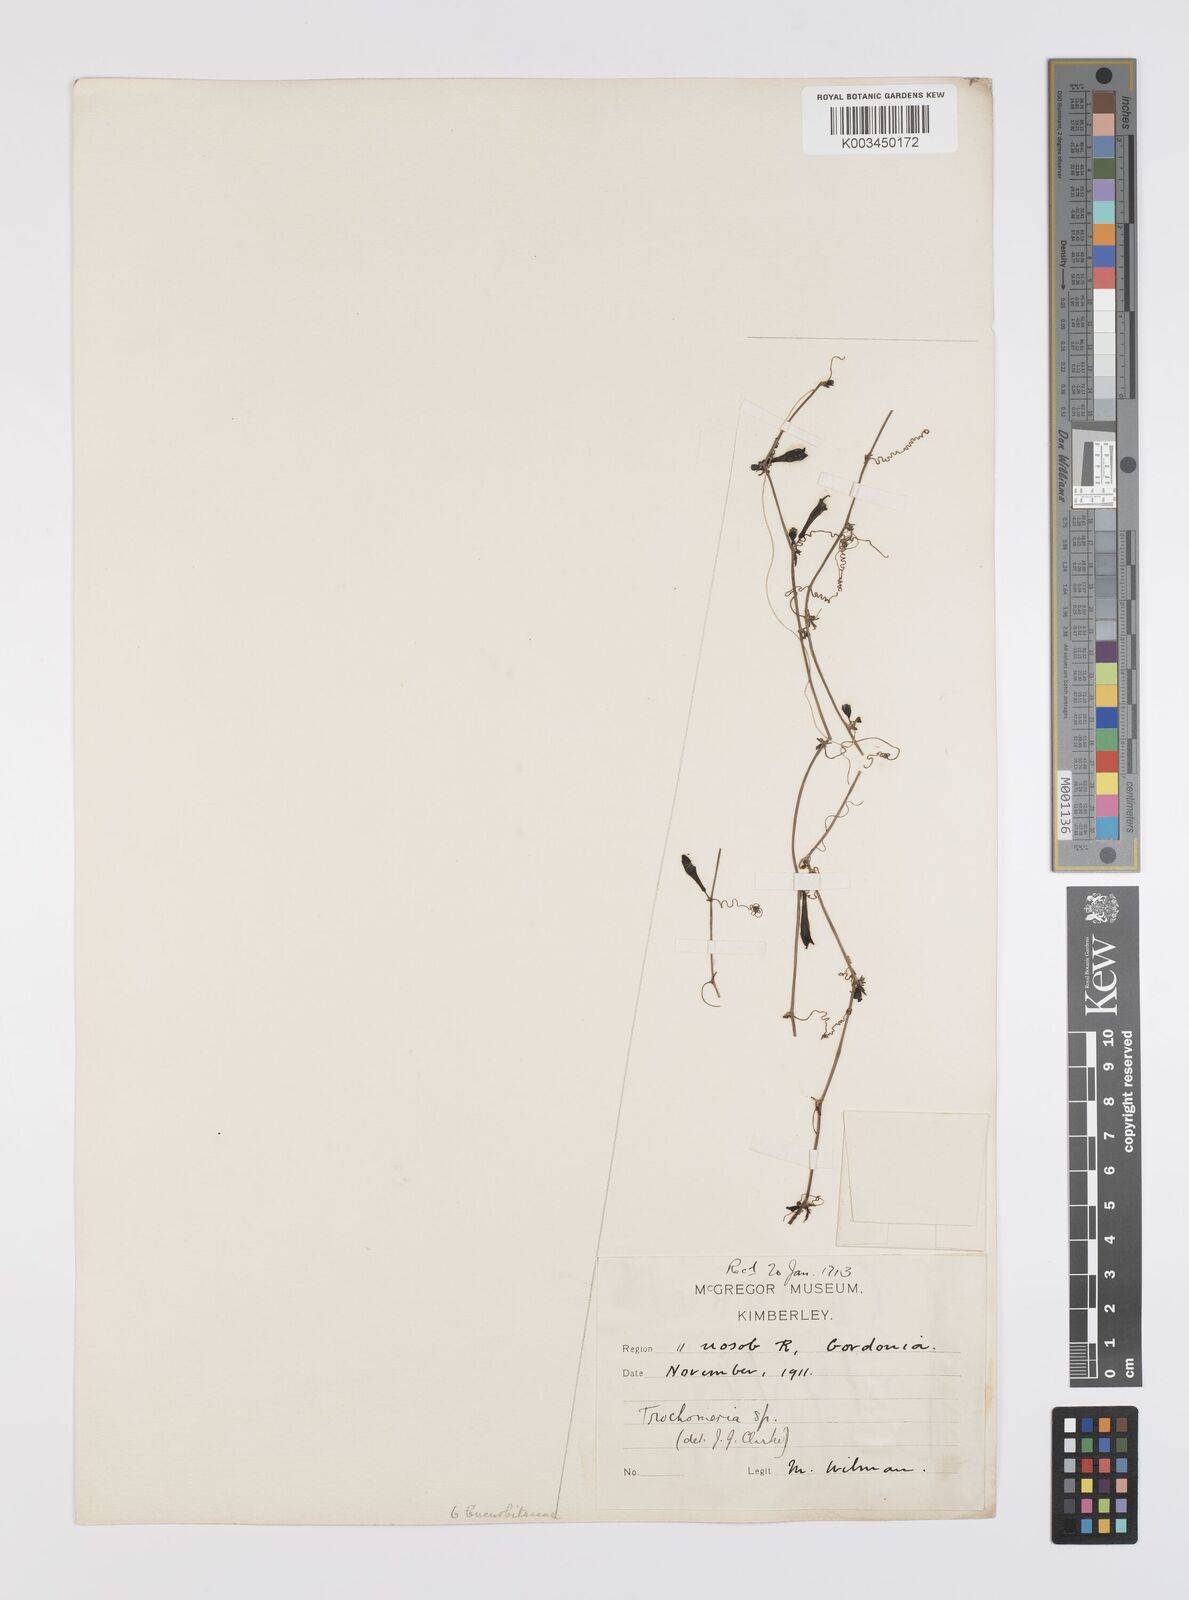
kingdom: Plantae
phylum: Tracheophyta
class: Magnoliopsida
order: Cucurbitales
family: Cucurbitaceae
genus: Trochomeria
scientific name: Trochomeria debilis
